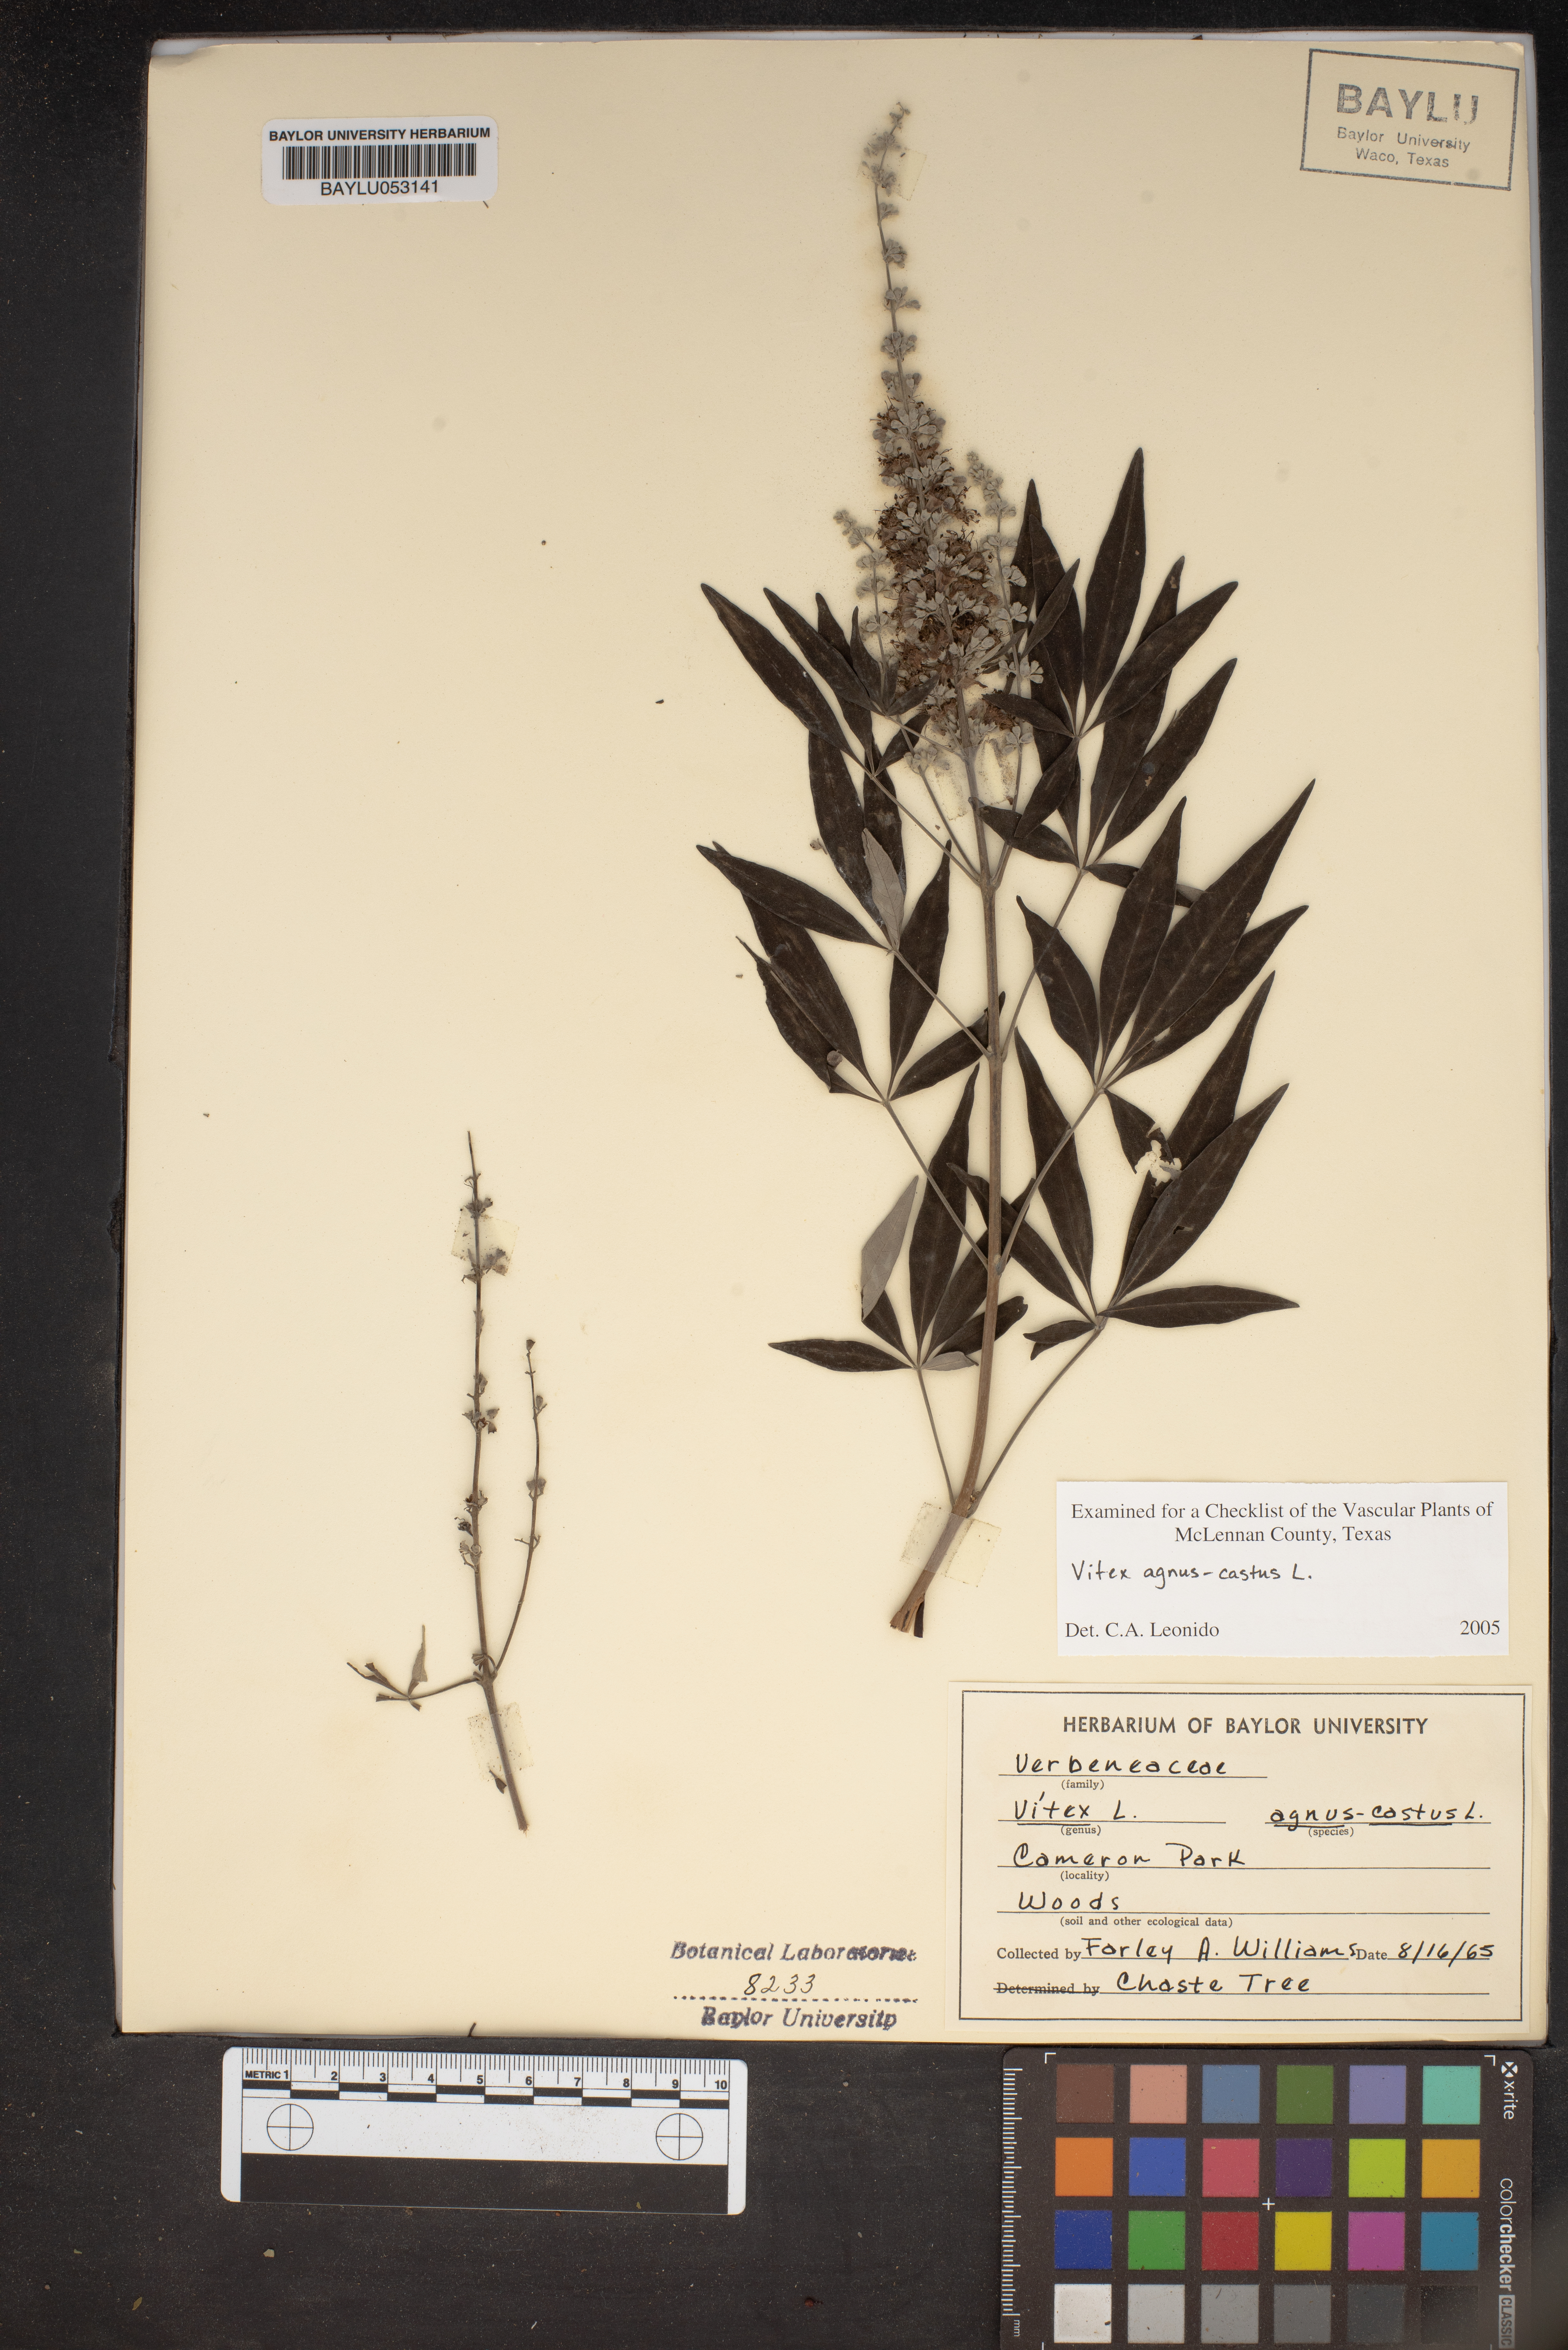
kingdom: Plantae
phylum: Tracheophyta
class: Magnoliopsida
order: Lamiales
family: Lamiaceae
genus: Vitex
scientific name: Vitex agnus-castus
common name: Chasteberry
